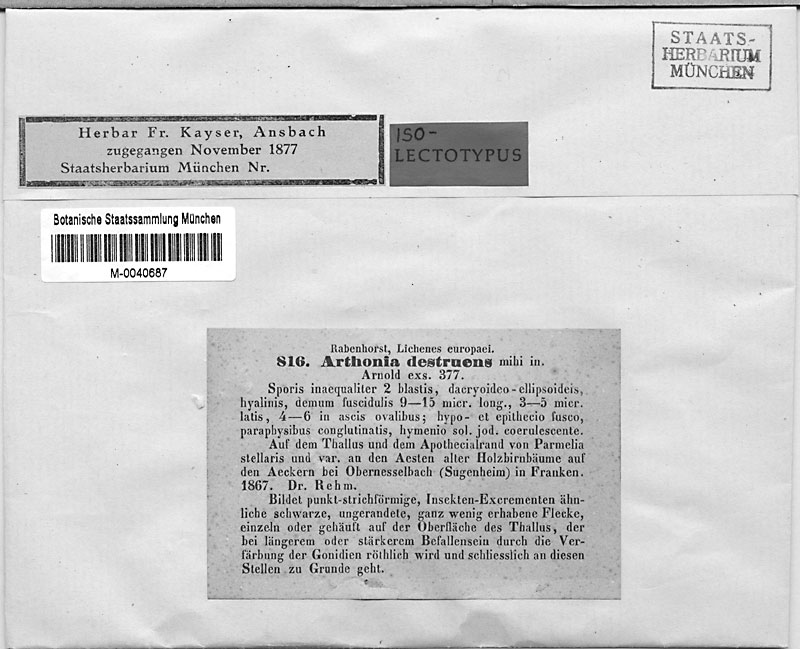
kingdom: Fungi
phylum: Ascomycota
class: Lecanoromycetes
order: Caliciales
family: Physciaceae
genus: Physcia
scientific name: Physcia stellaris
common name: Star rosette lichen
